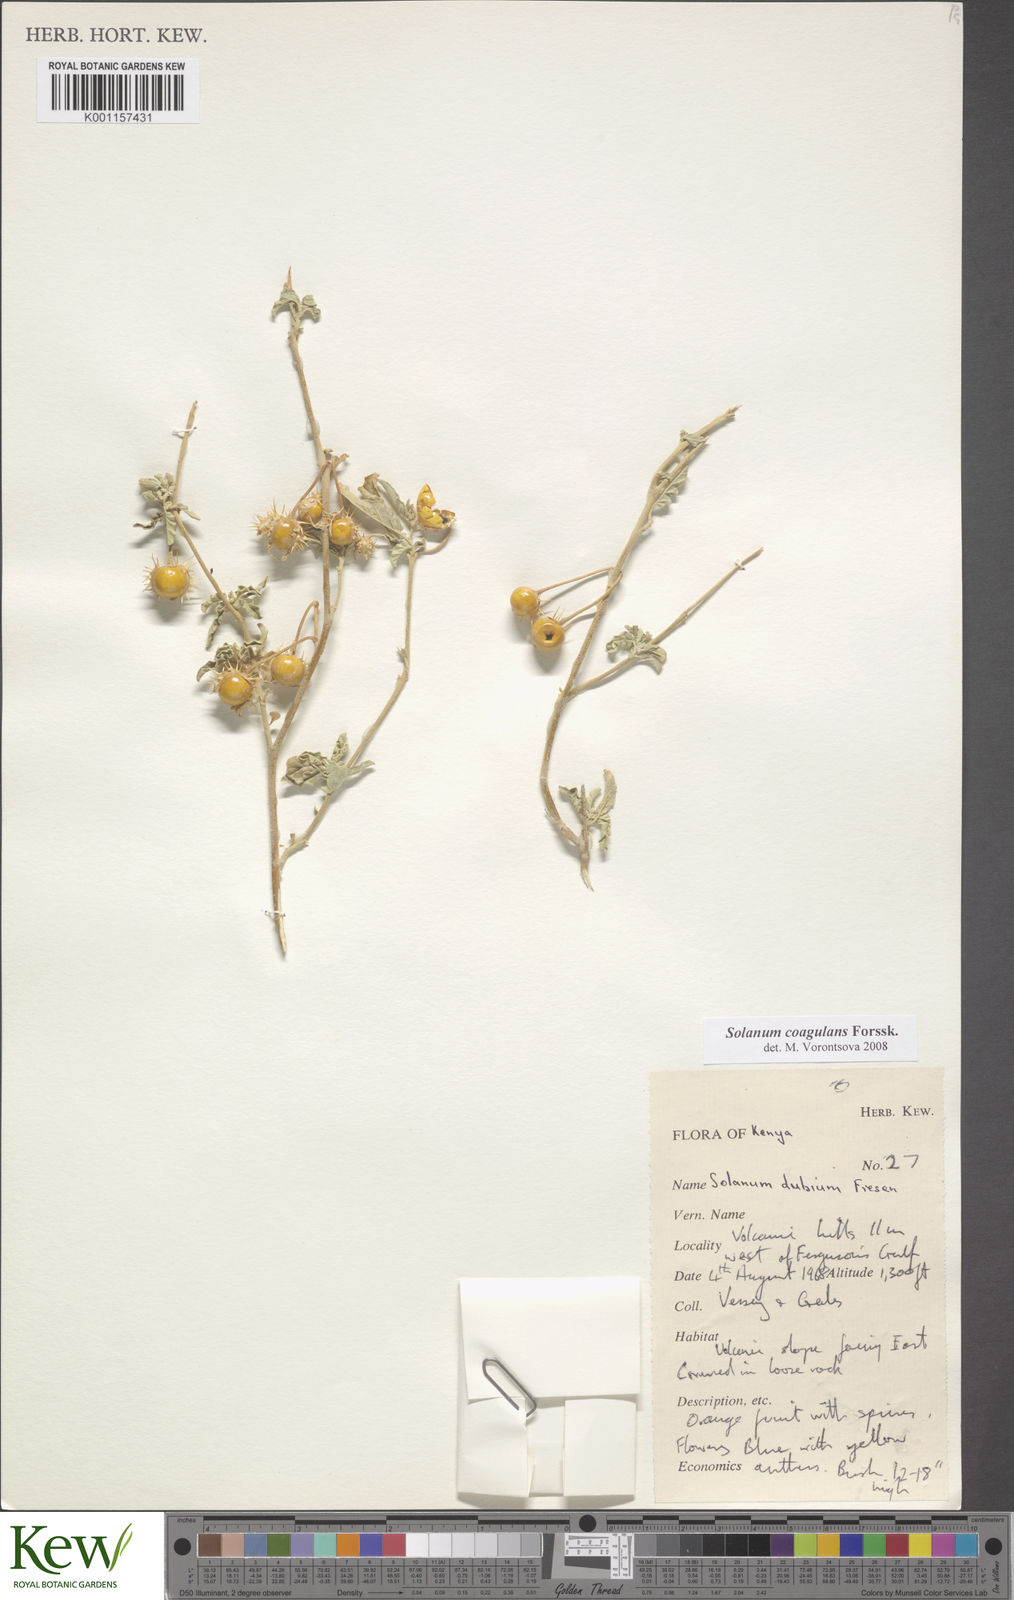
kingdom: Plantae
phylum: Tracheophyta
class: Magnoliopsida
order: Solanales
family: Solanaceae
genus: Solanum
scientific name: Solanum coagulans
